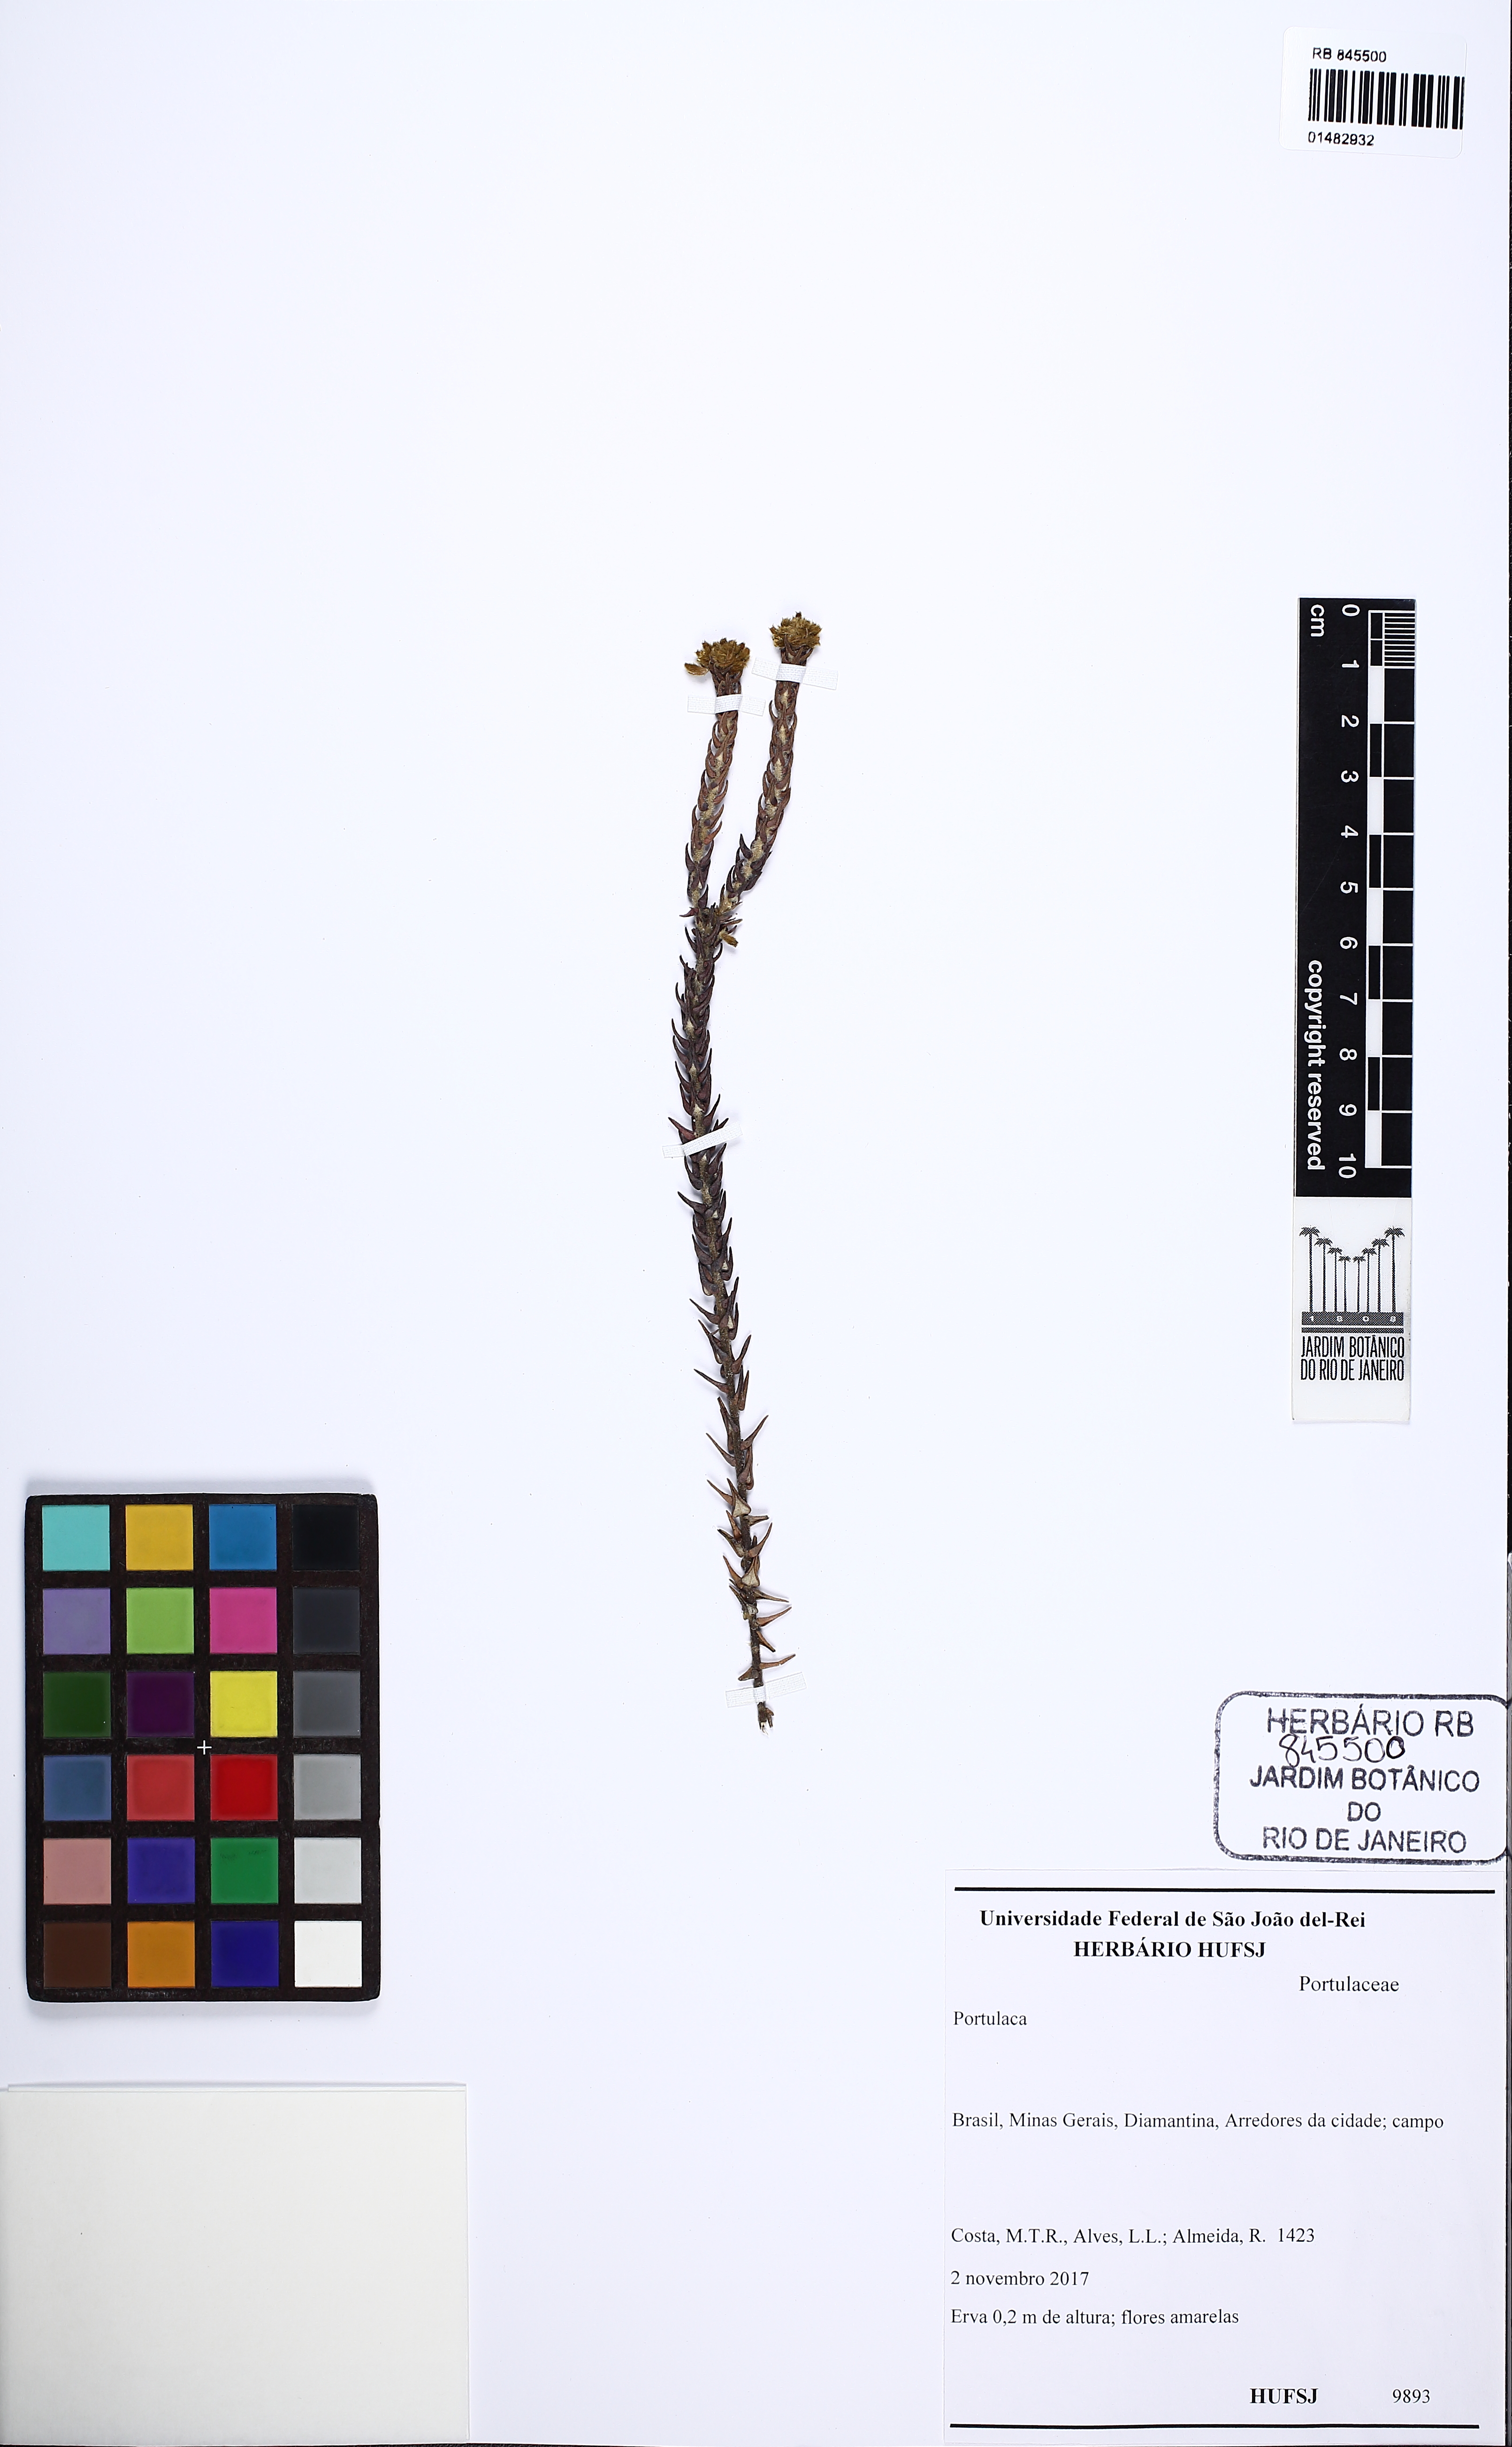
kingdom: Plantae
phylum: Tracheophyta
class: Magnoliopsida
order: Caryophyllales
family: Portulacaceae
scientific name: Portulacaceae
